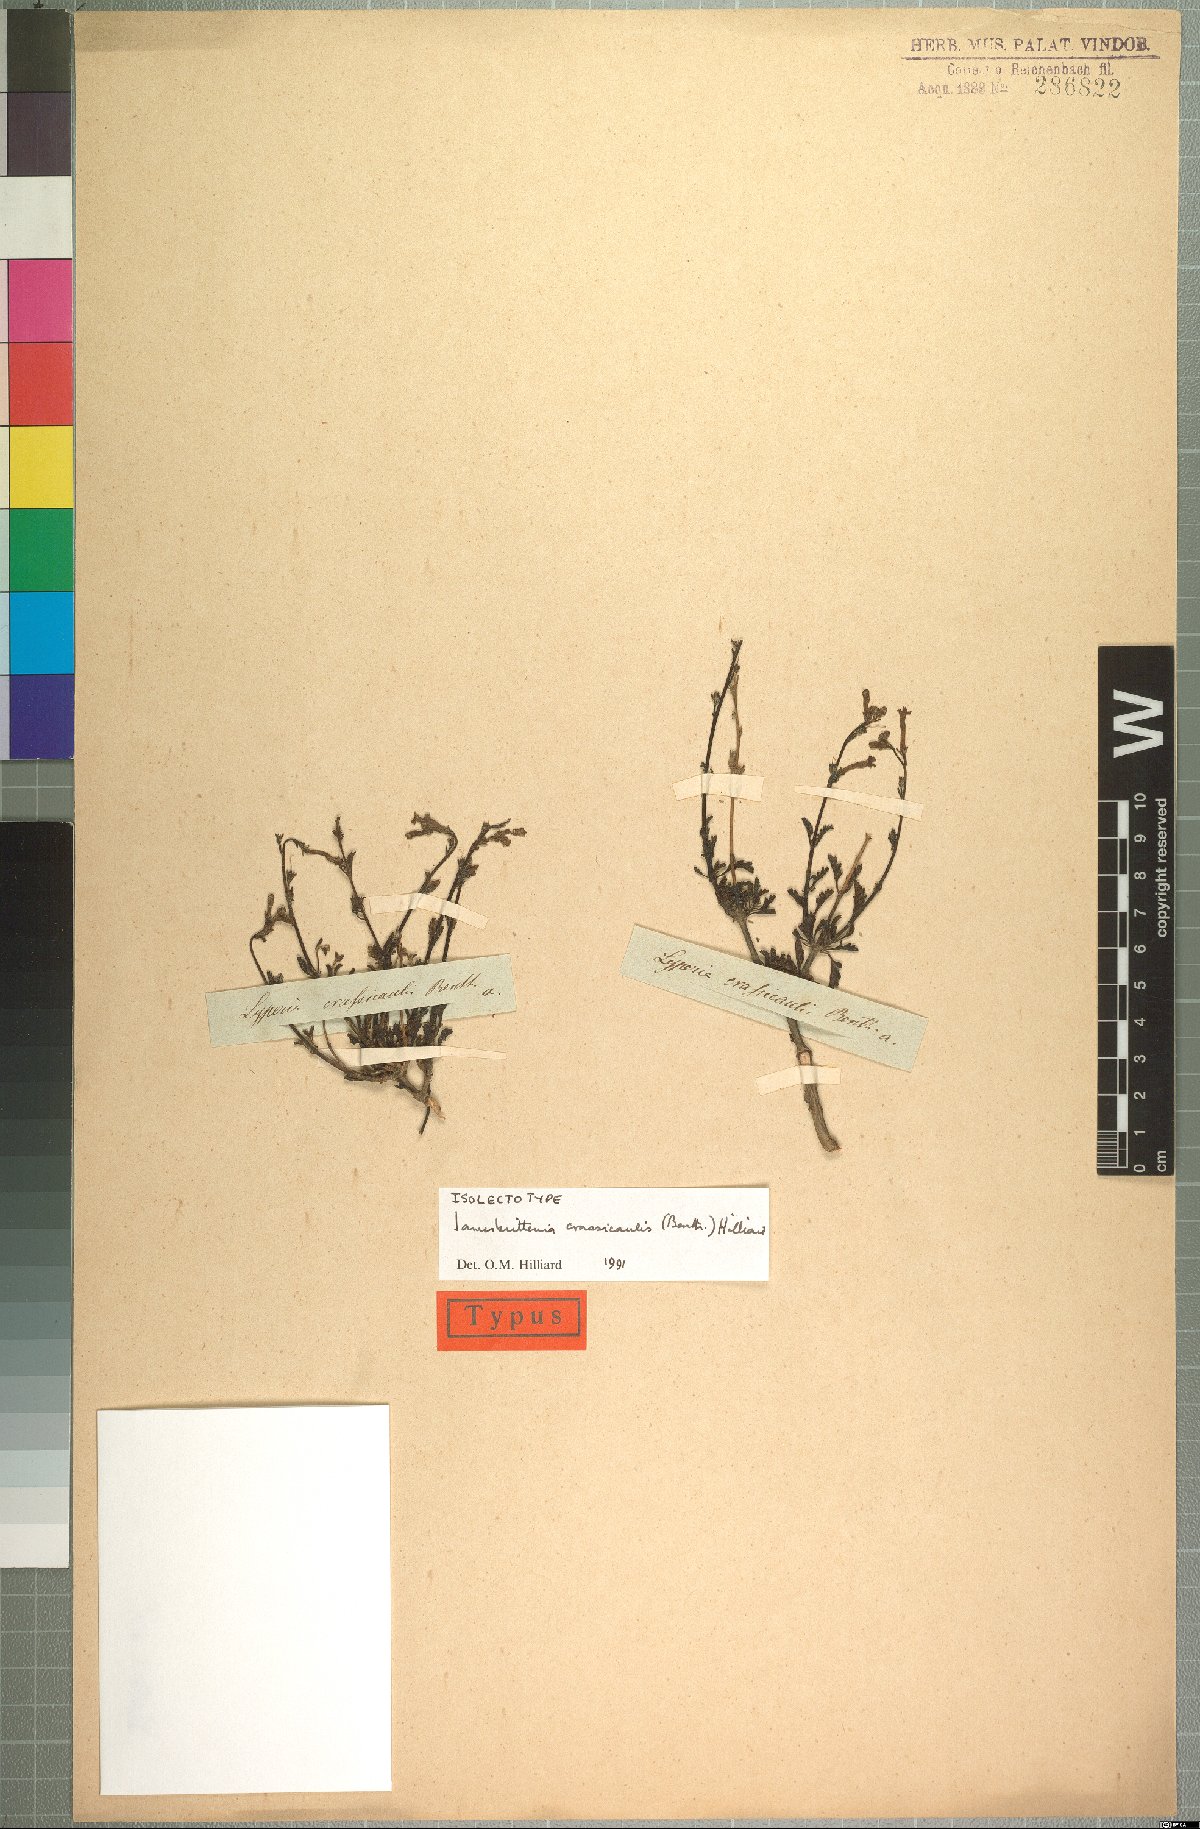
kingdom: Plantae
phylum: Tracheophyta
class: Magnoliopsida
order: Lamiales
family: Scrophulariaceae
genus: Jamesbrittenia
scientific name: Jamesbrittenia crassicaulis
